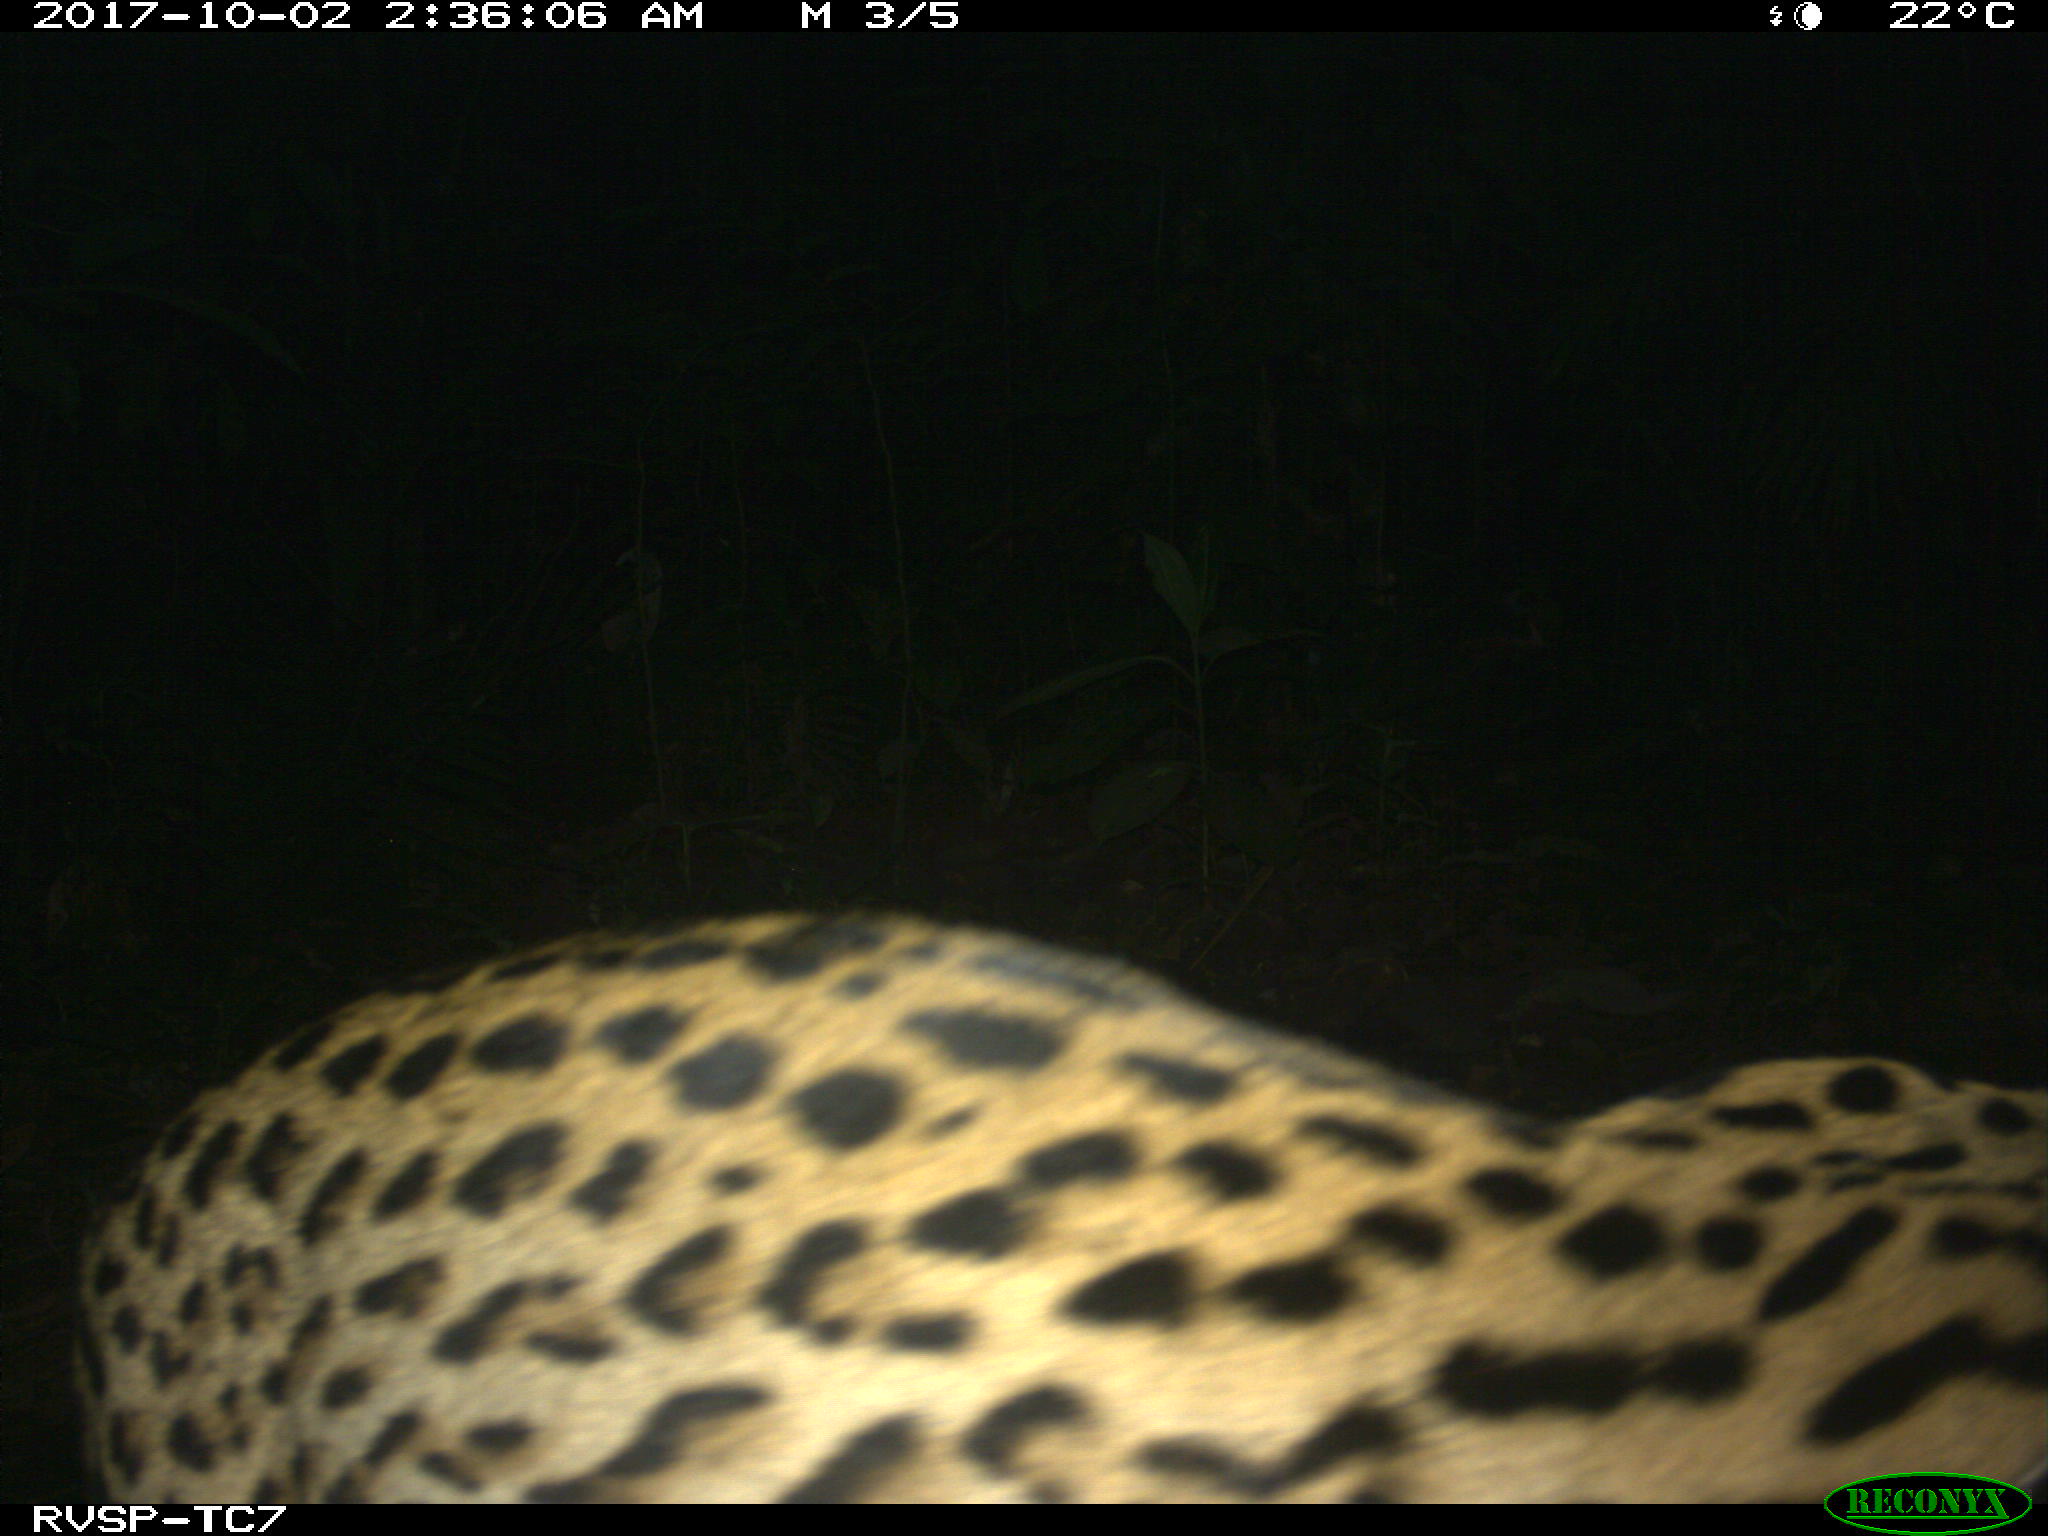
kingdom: Animalia
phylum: Chordata
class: Mammalia
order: Carnivora
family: Felidae
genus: Leopardus
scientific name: Leopardus pardalis
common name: Ocelot
